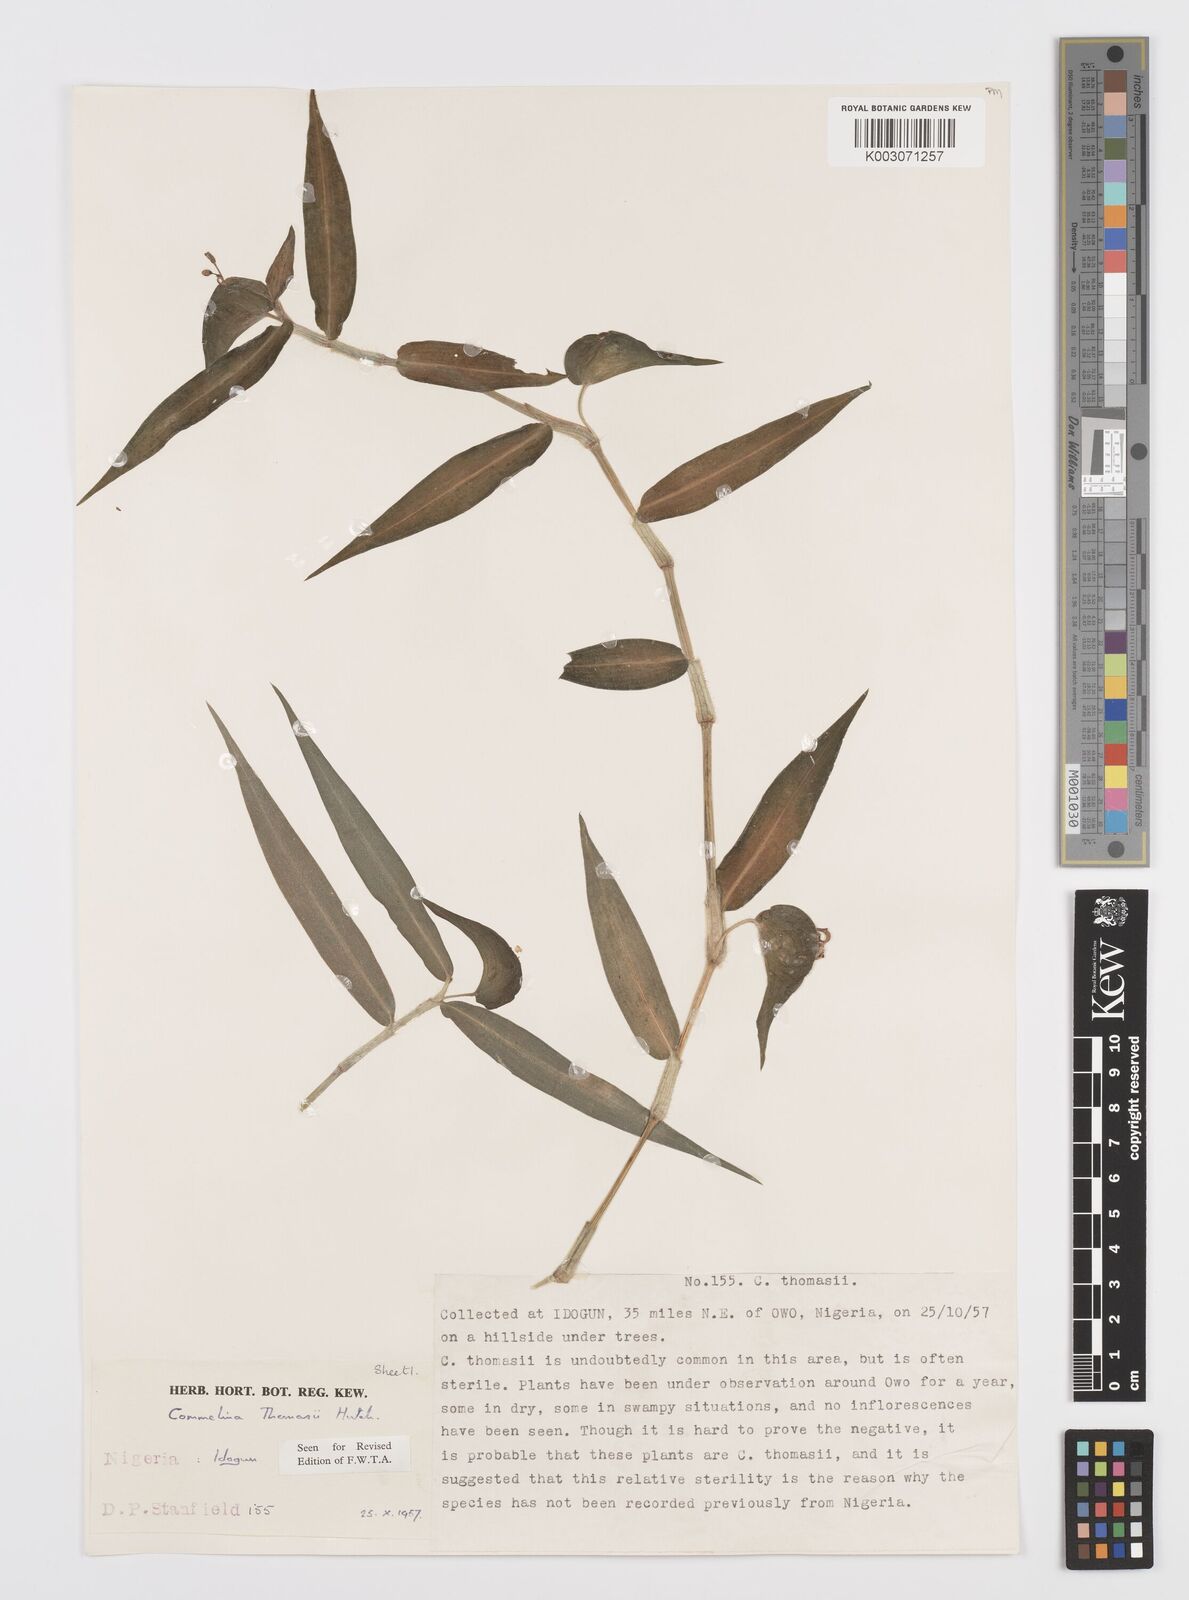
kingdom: Plantae
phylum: Tracheophyta
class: Liliopsida
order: Commelinales
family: Commelinaceae
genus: Commelina
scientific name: Commelina acutispatha
